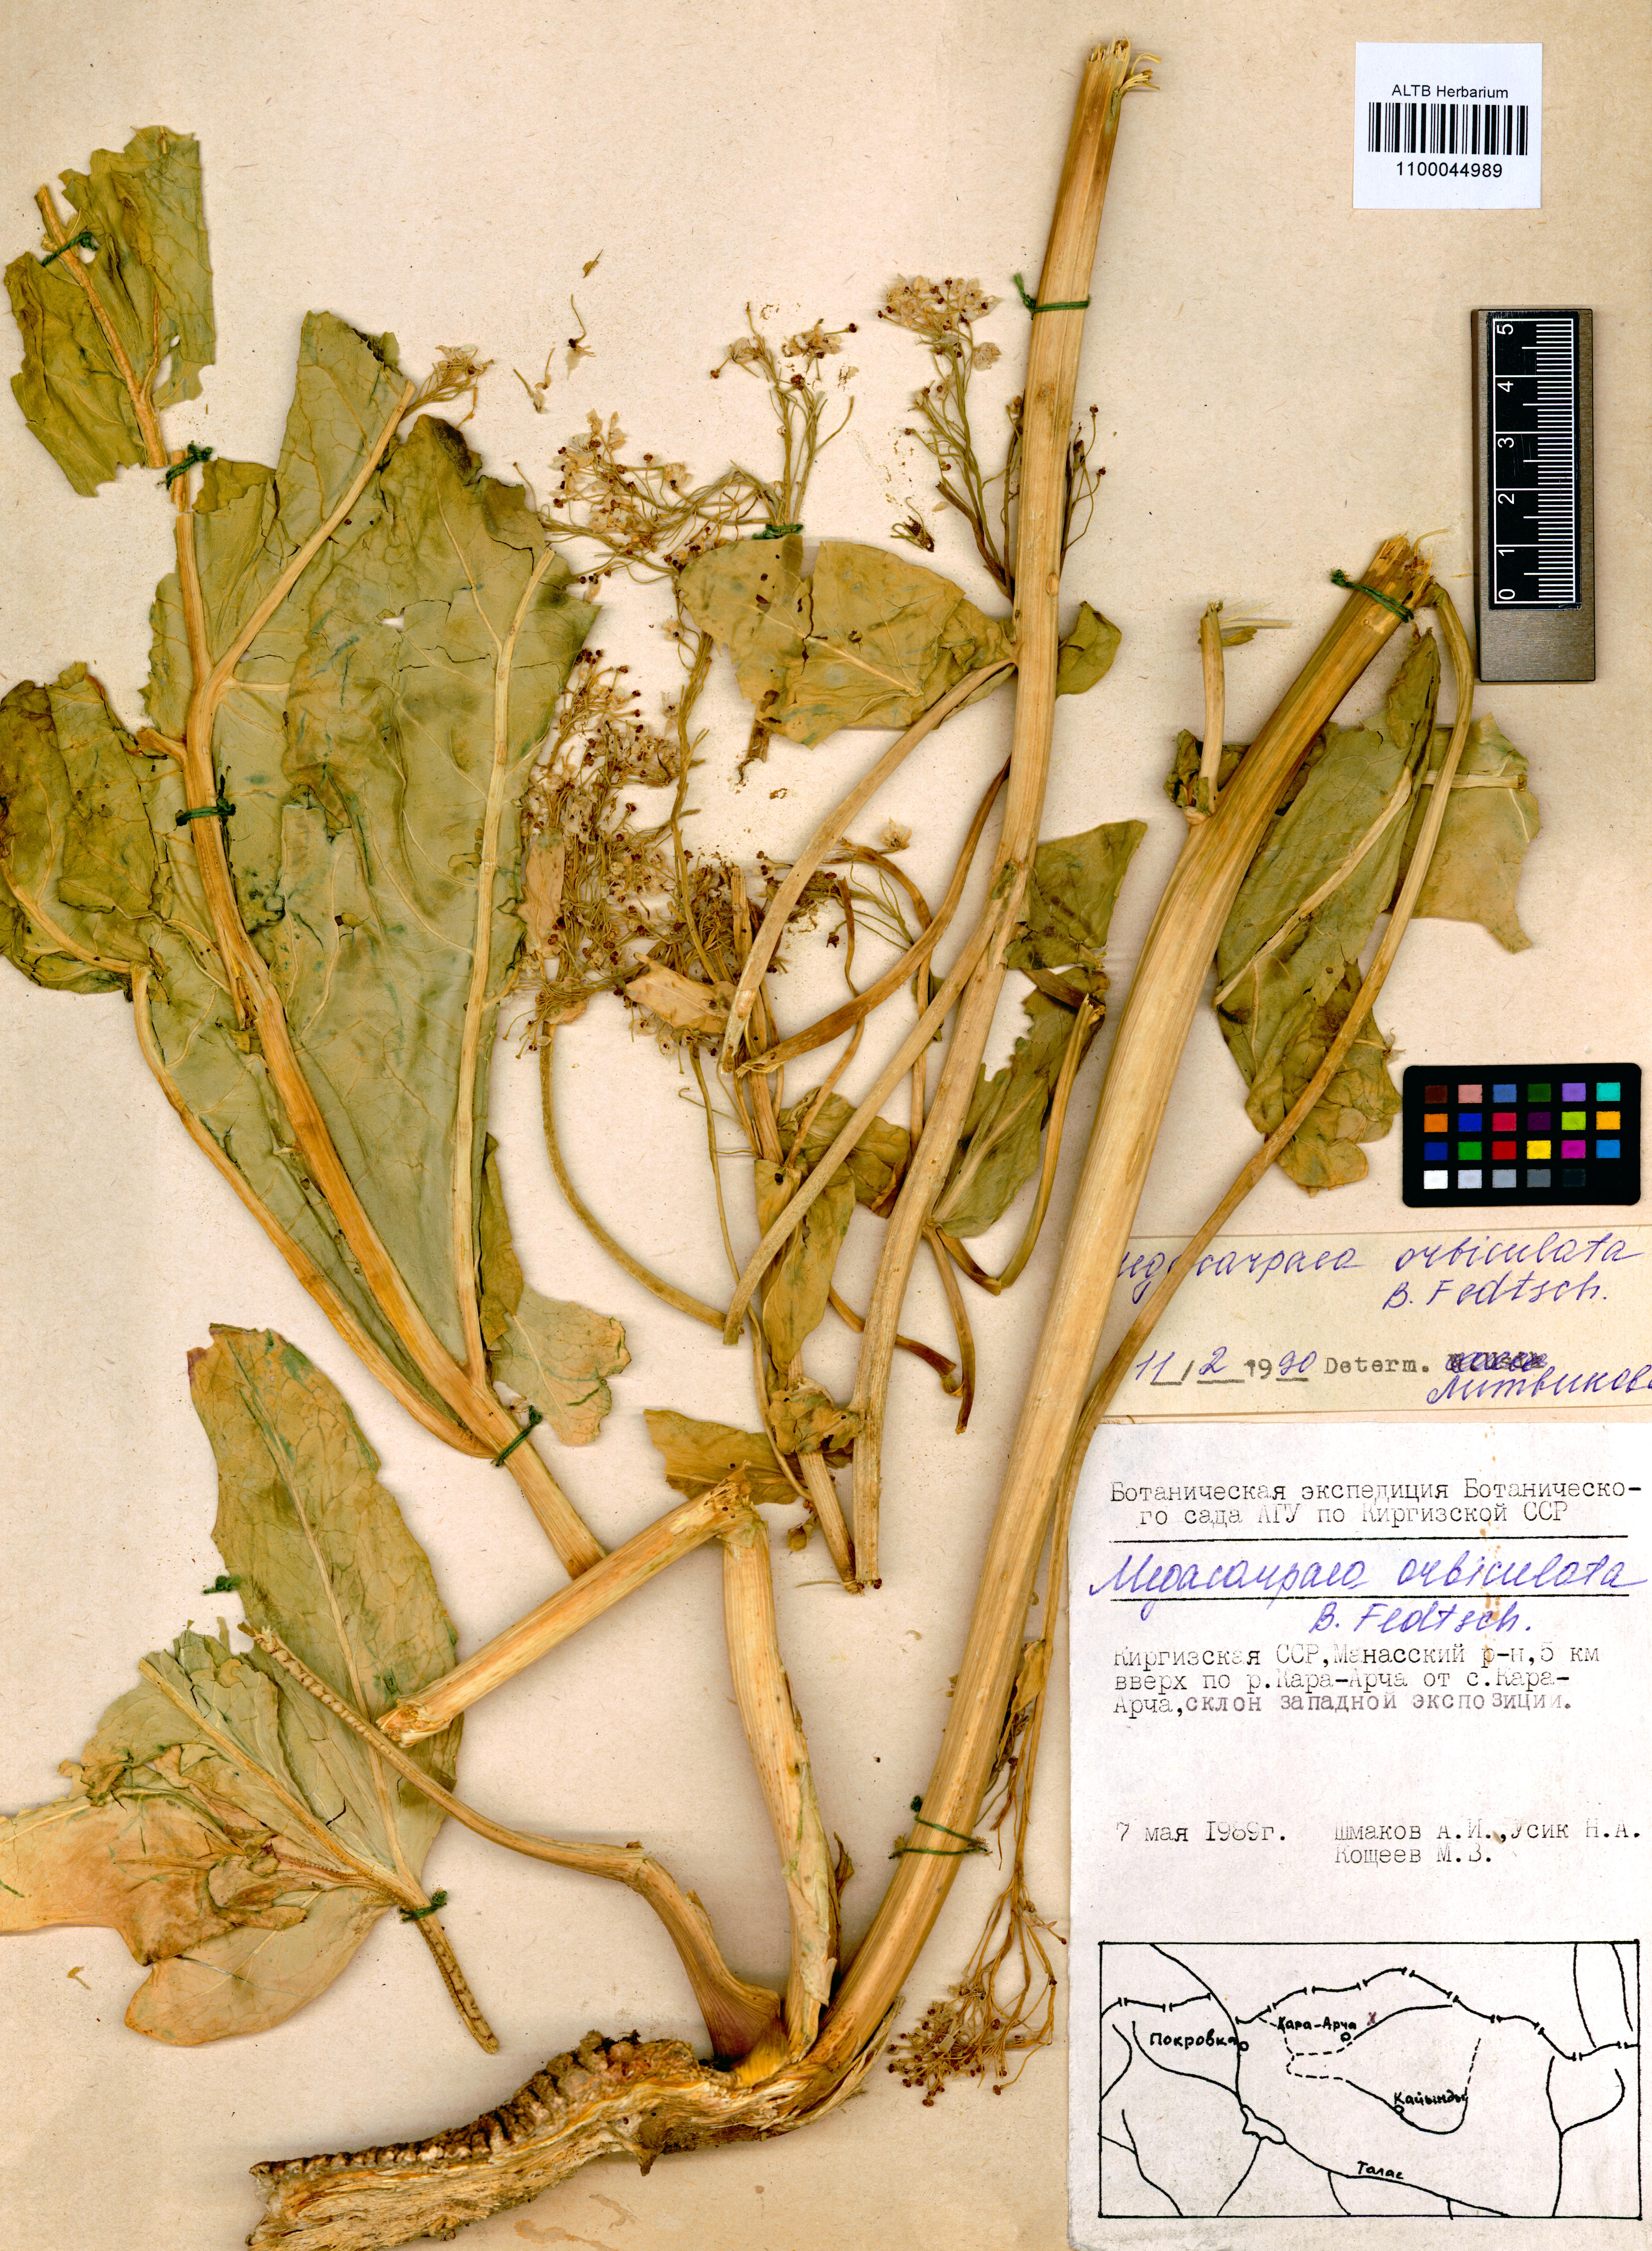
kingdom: Plantae
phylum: Tracheophyta
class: Magnoliopsida
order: Brassicales
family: Brassicaceae
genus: Megacarpaea
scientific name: Megacarpaea orbiculata
